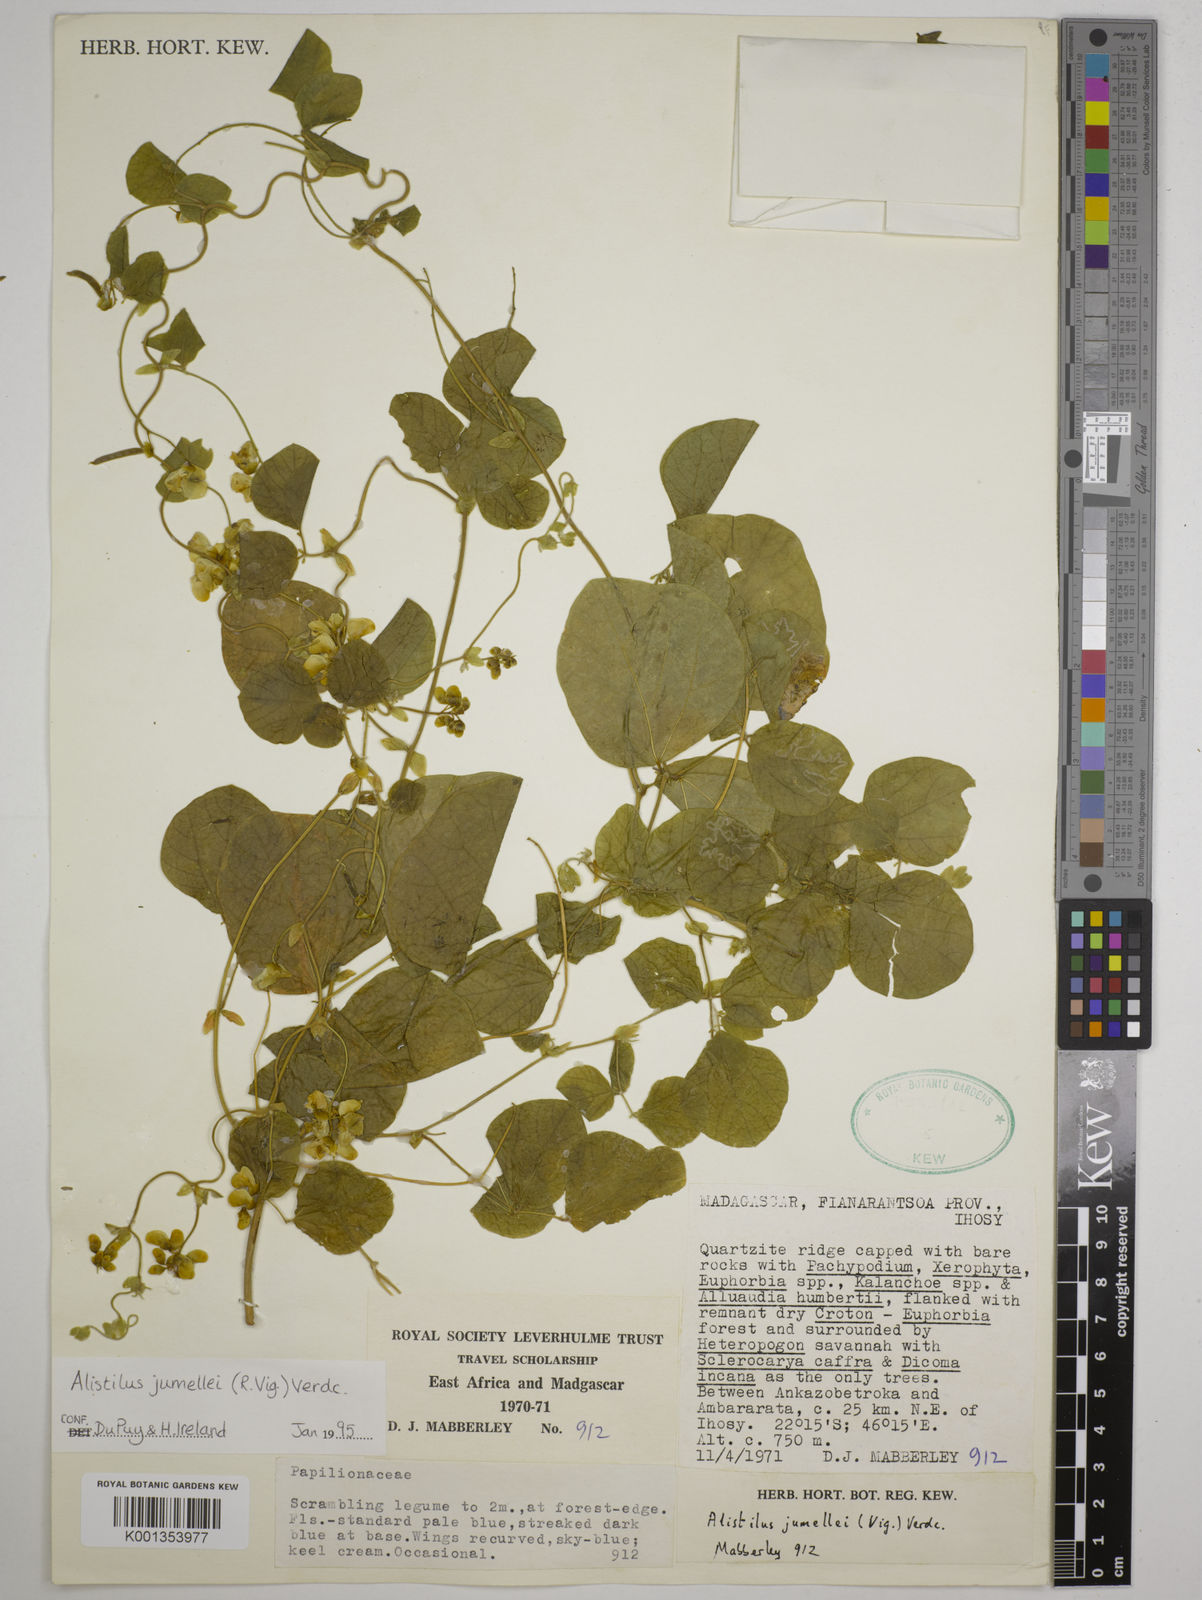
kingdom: Plantae
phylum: Tracheophyta
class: Magnoliopsida
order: Fabales
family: Fabaceae
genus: Alistilus
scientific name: Alistilus jumellei
